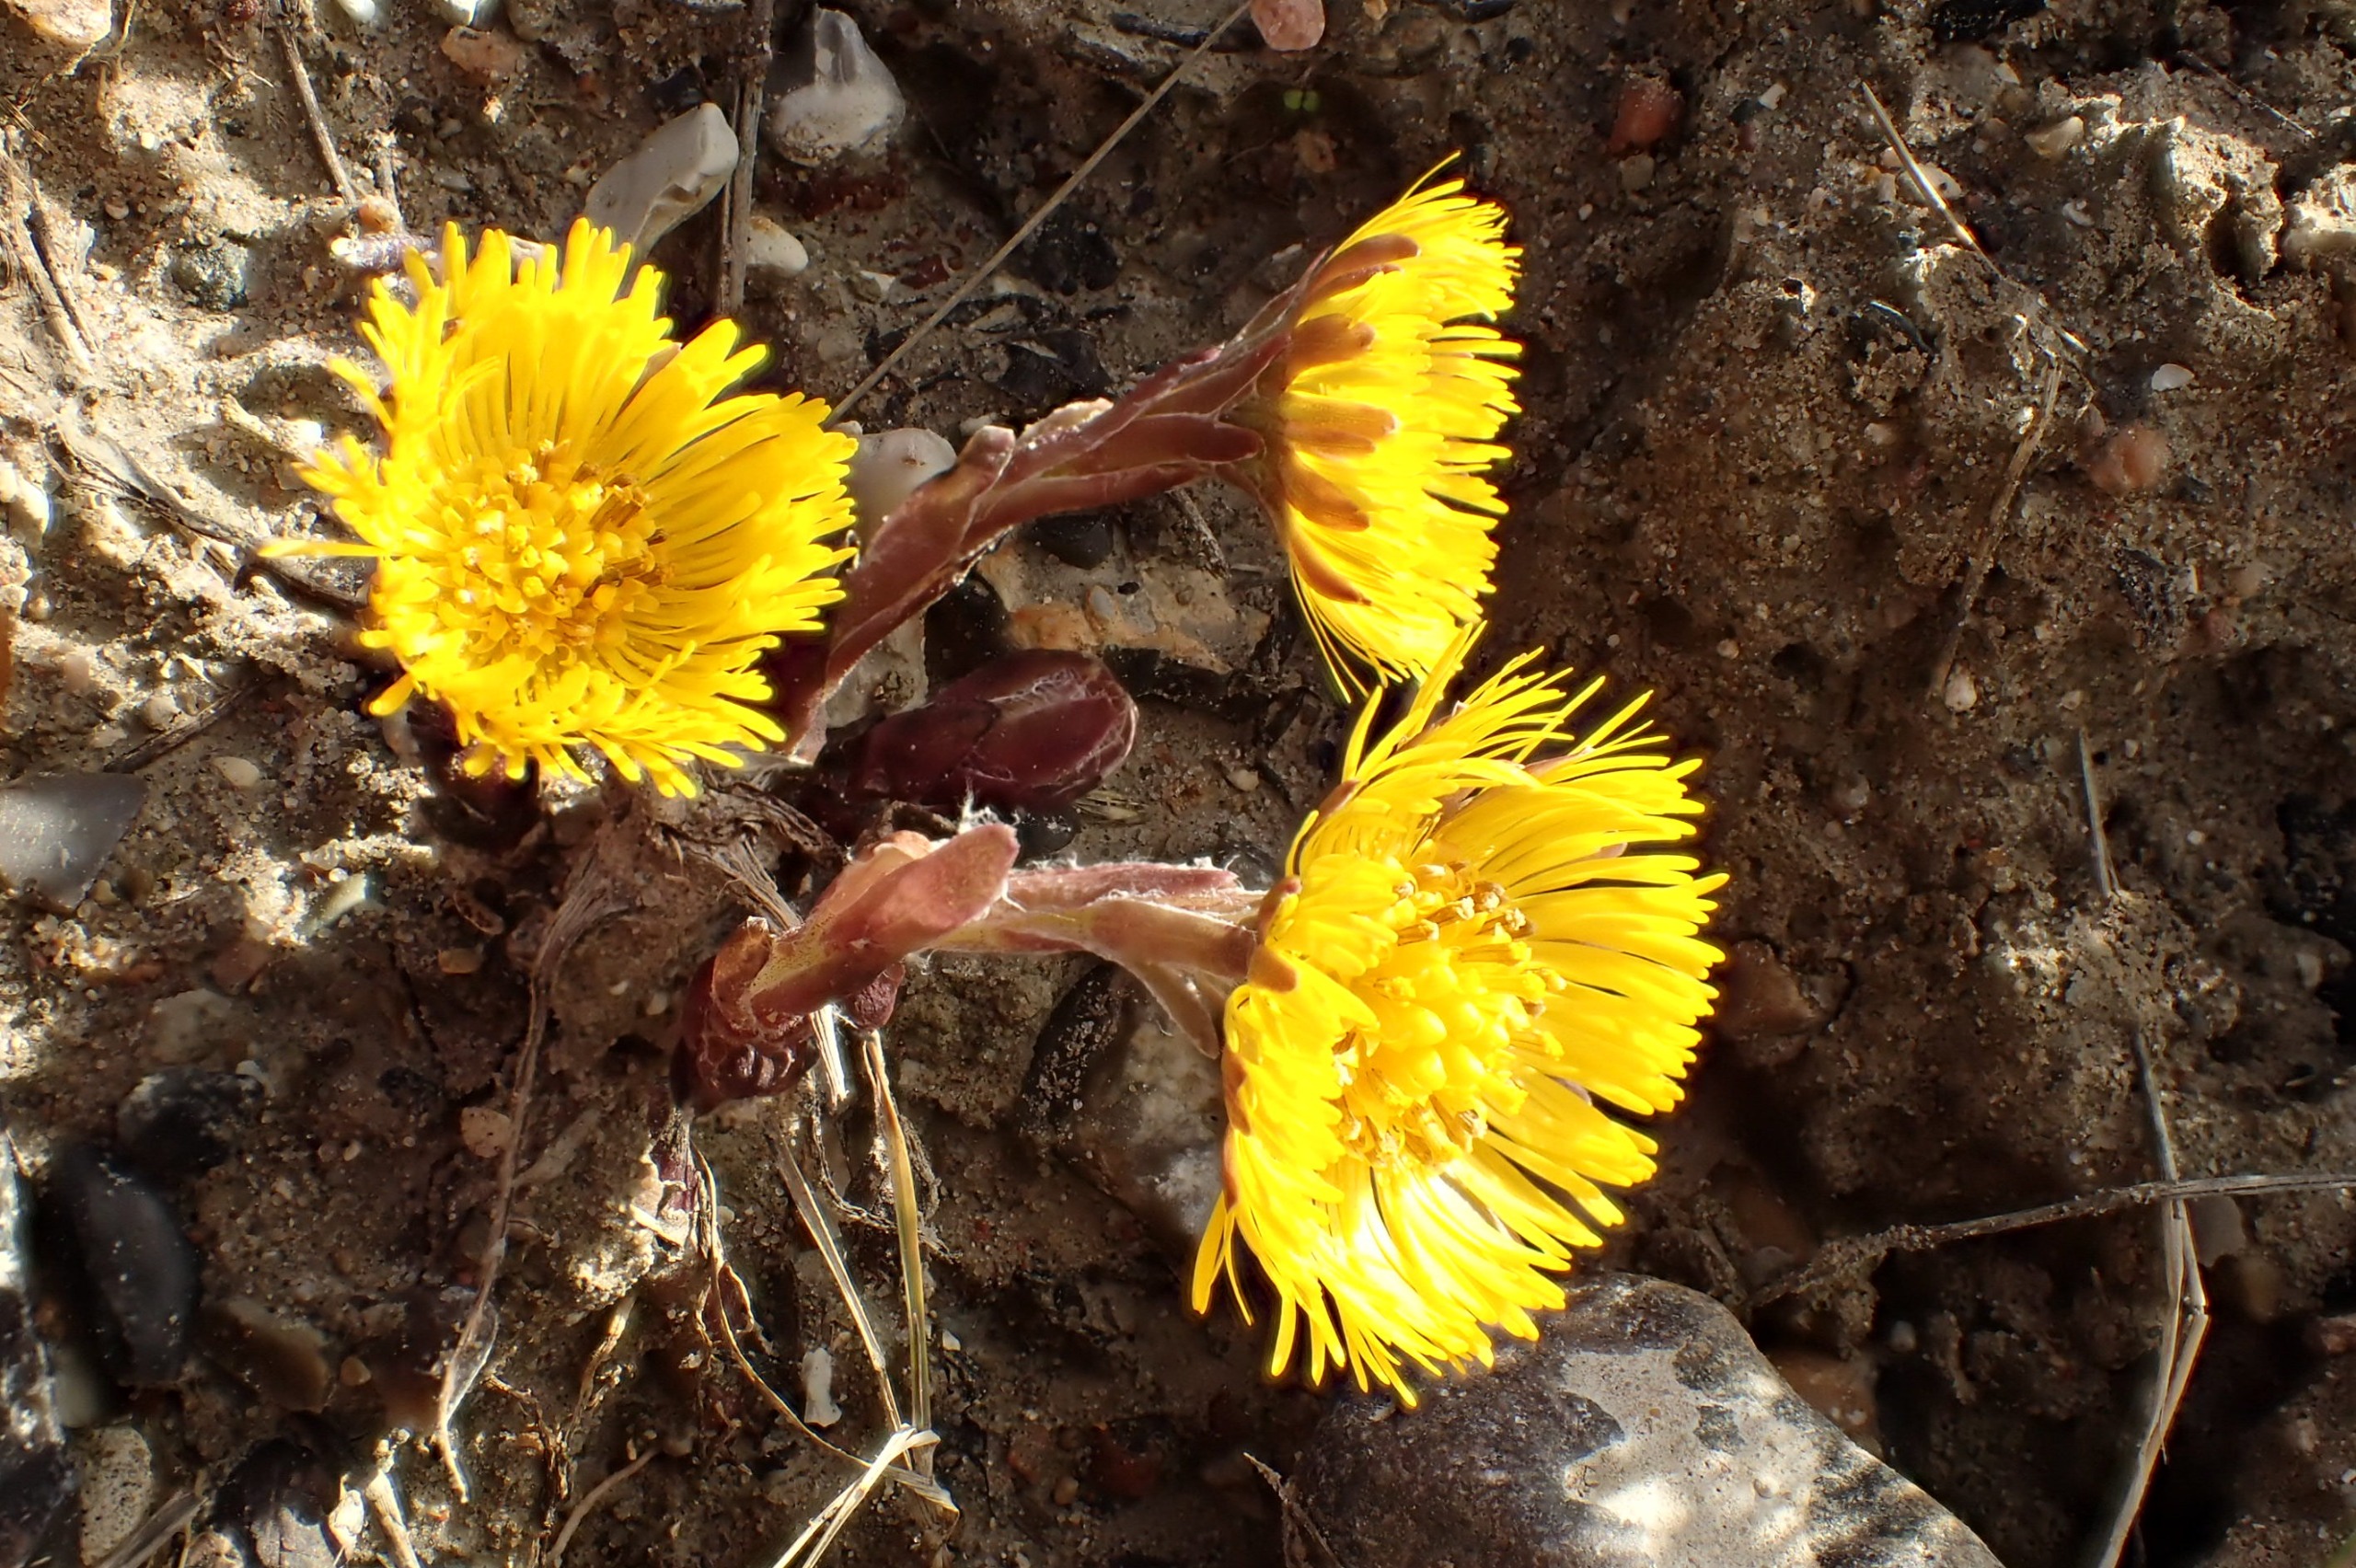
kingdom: Plantae
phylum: Tracheophyta
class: Magnoliopsida
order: Asterales
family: Asteraceae
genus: Tussilago
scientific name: Tussilago farfara
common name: Følfod
